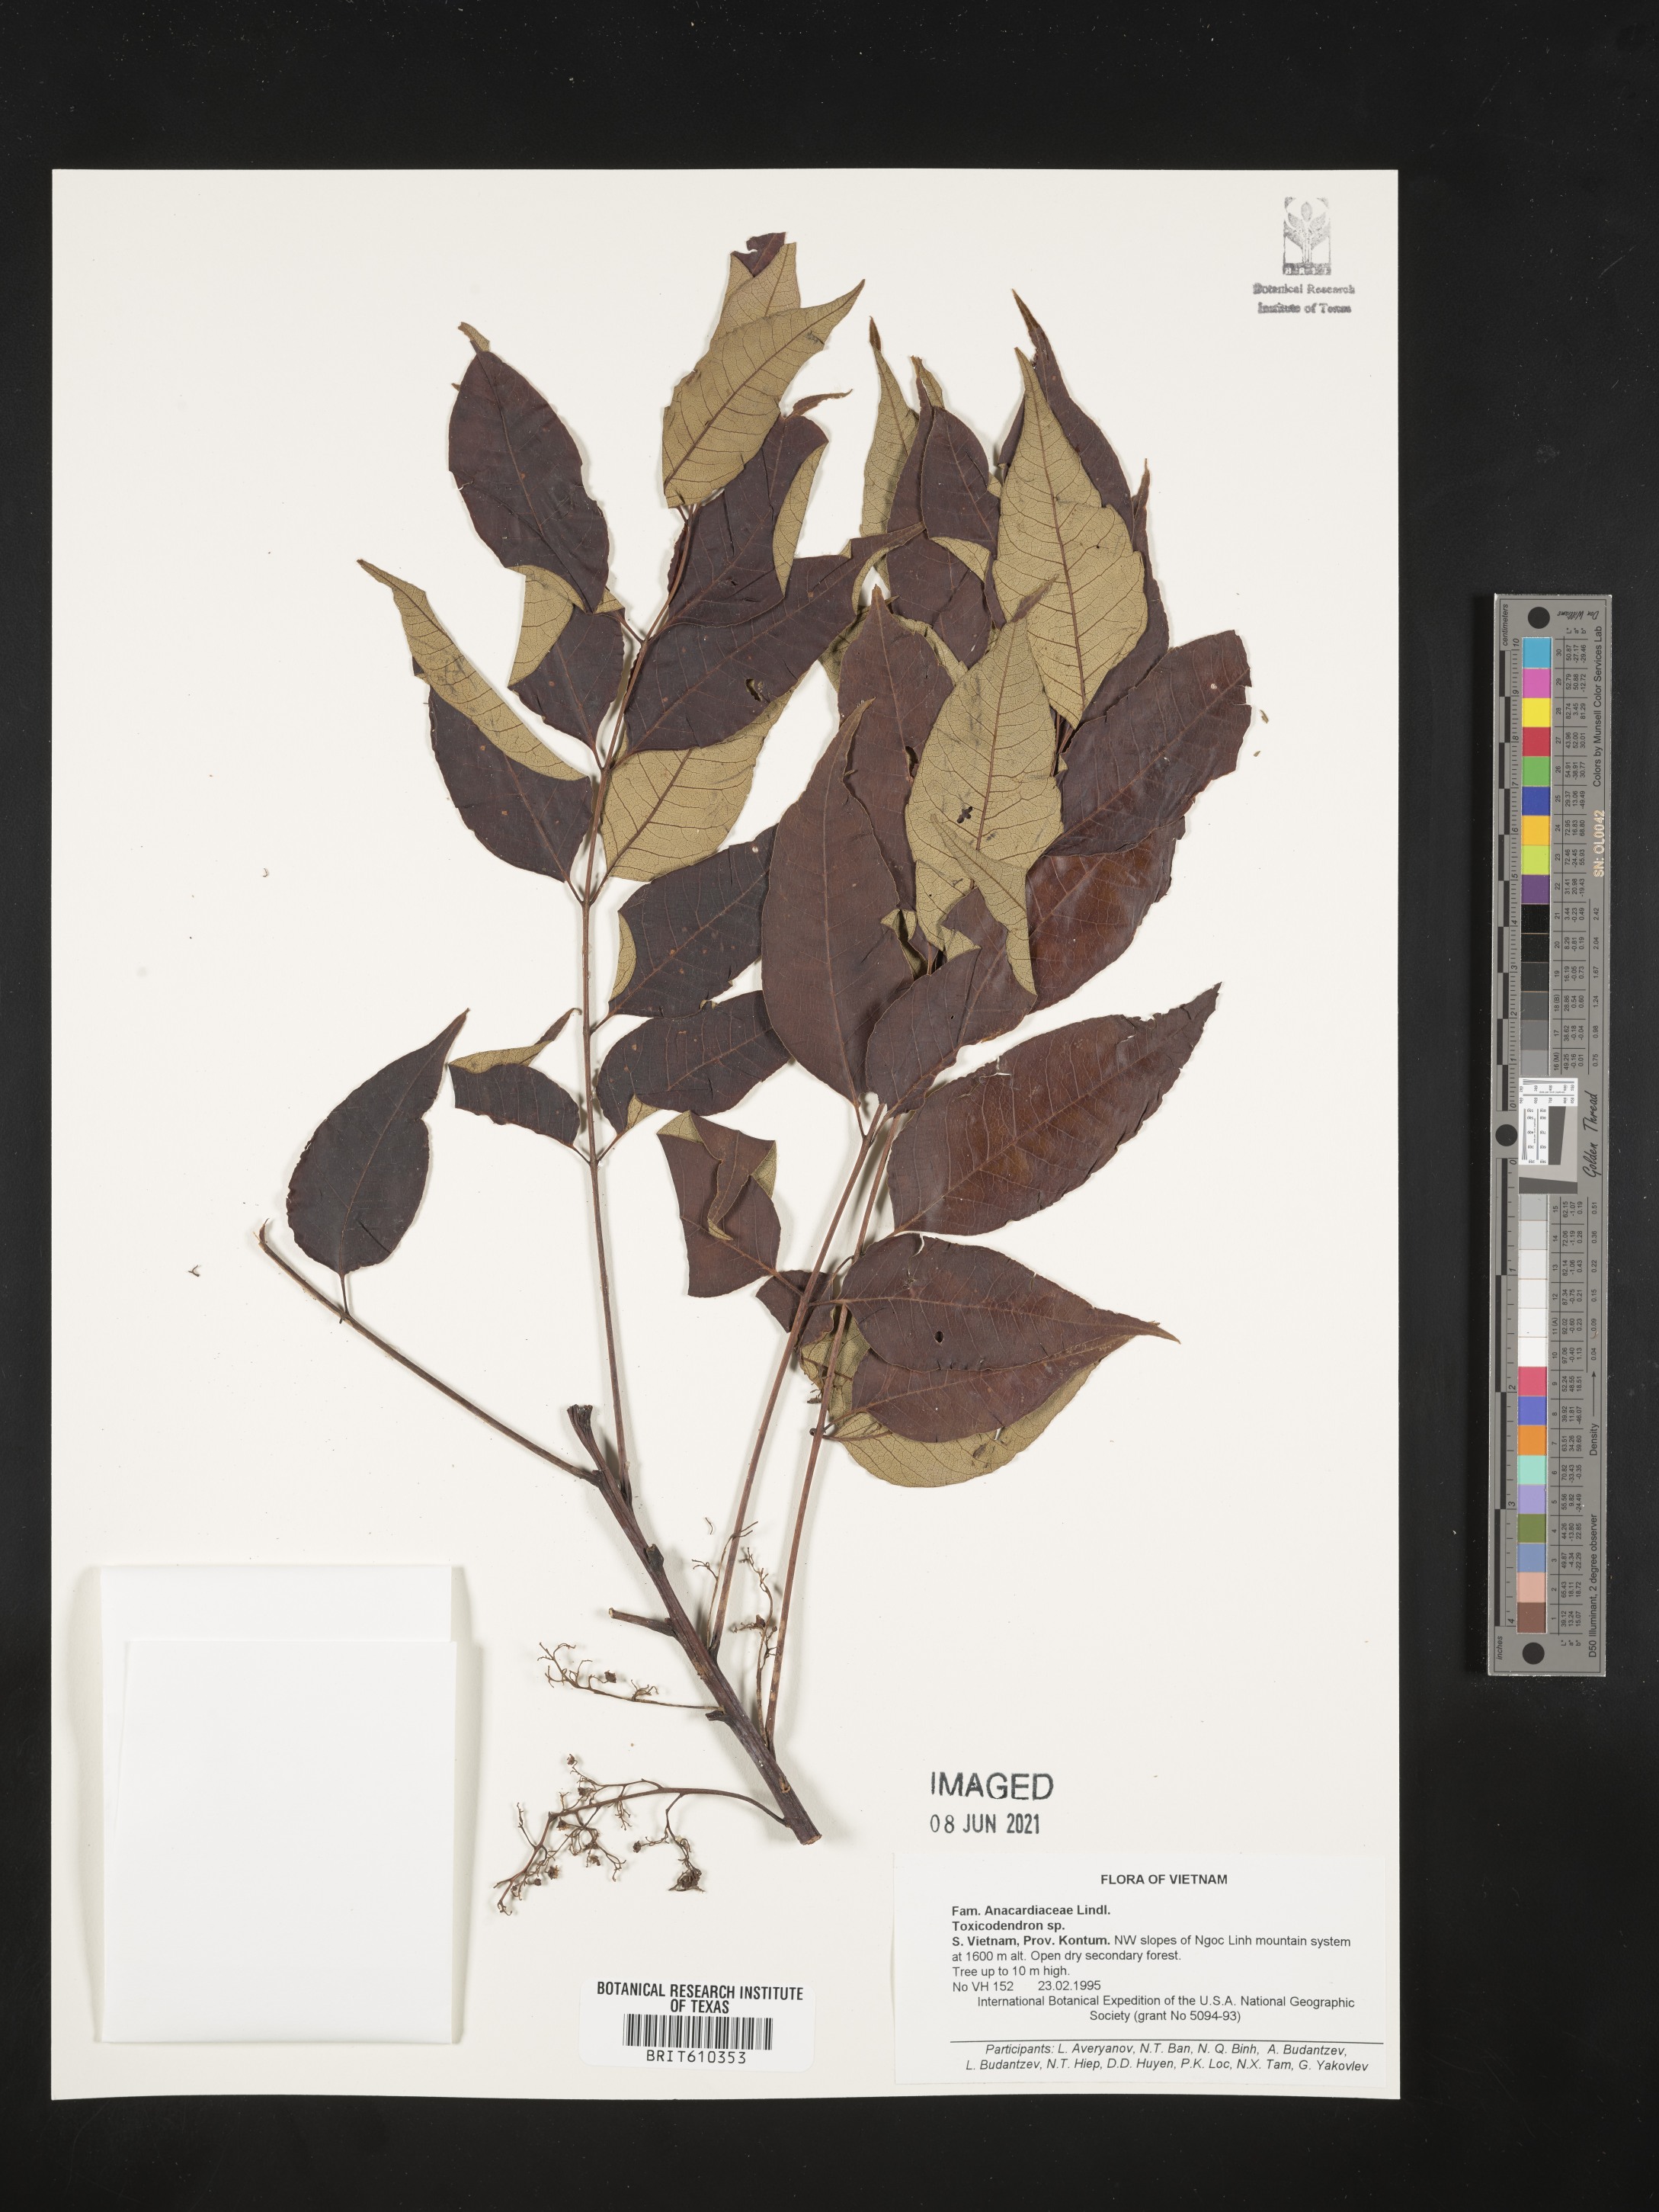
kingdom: Plantae
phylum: Tracheophyta
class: Magnoliopsida
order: Sapindales
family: Anacardiaceae
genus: Toxicodendron
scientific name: Toxicodendron
